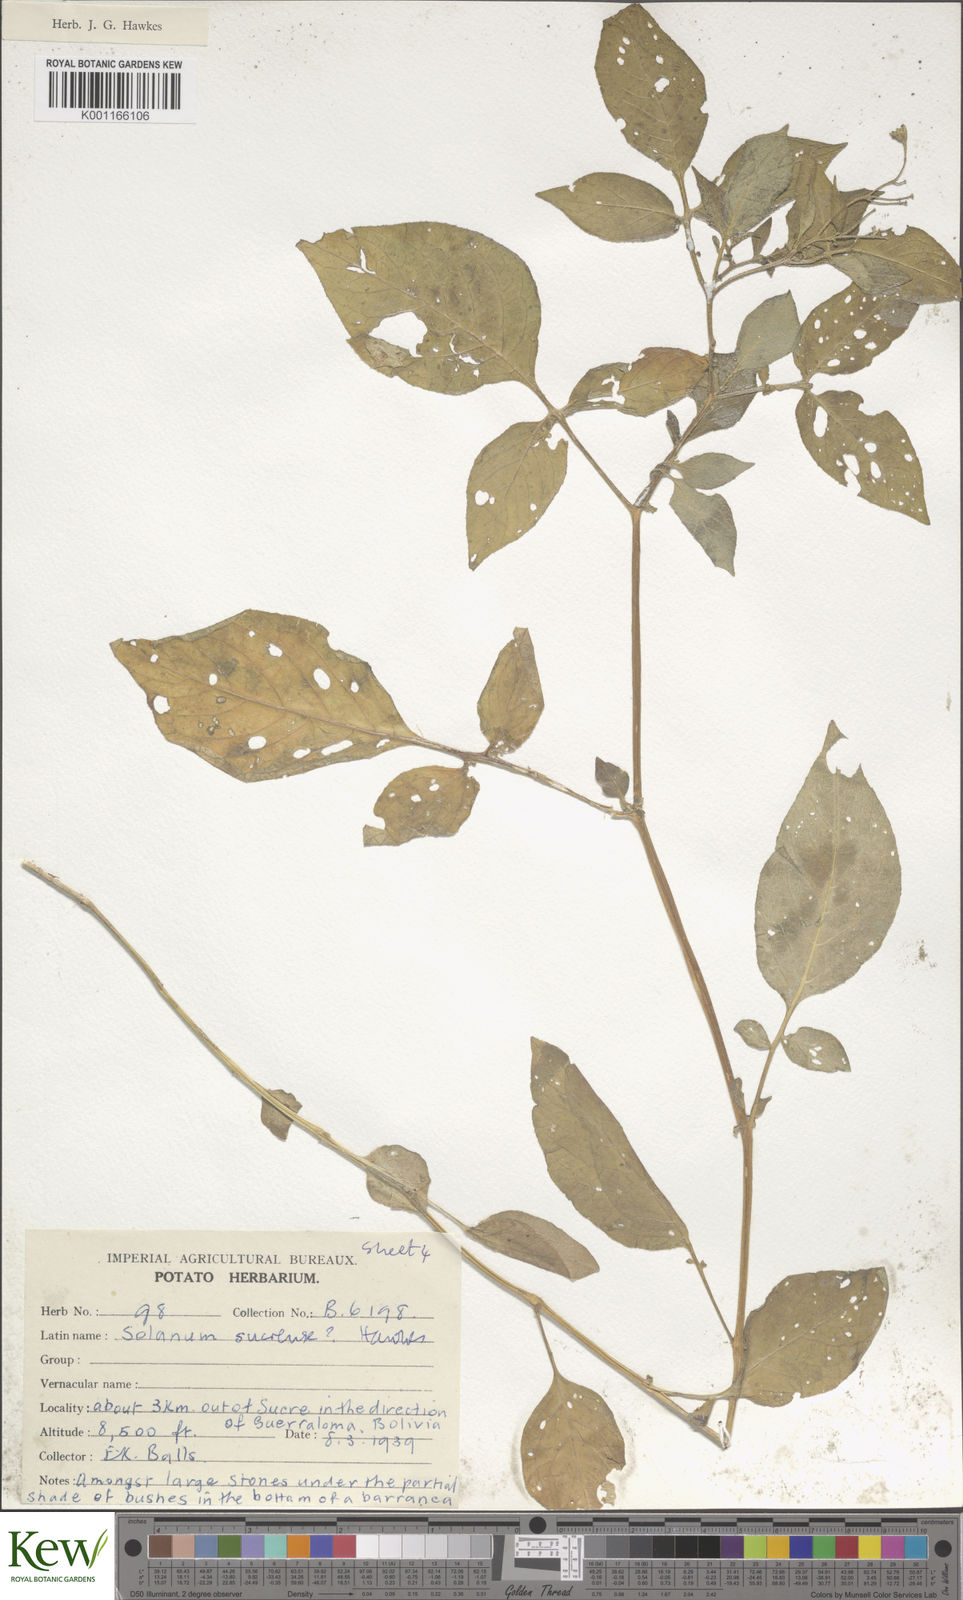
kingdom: Plantae
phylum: Tracheophyta
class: Magnoliopsida
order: Solanales
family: Solanaceae
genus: Solanum
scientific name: Solanum brevicaule
